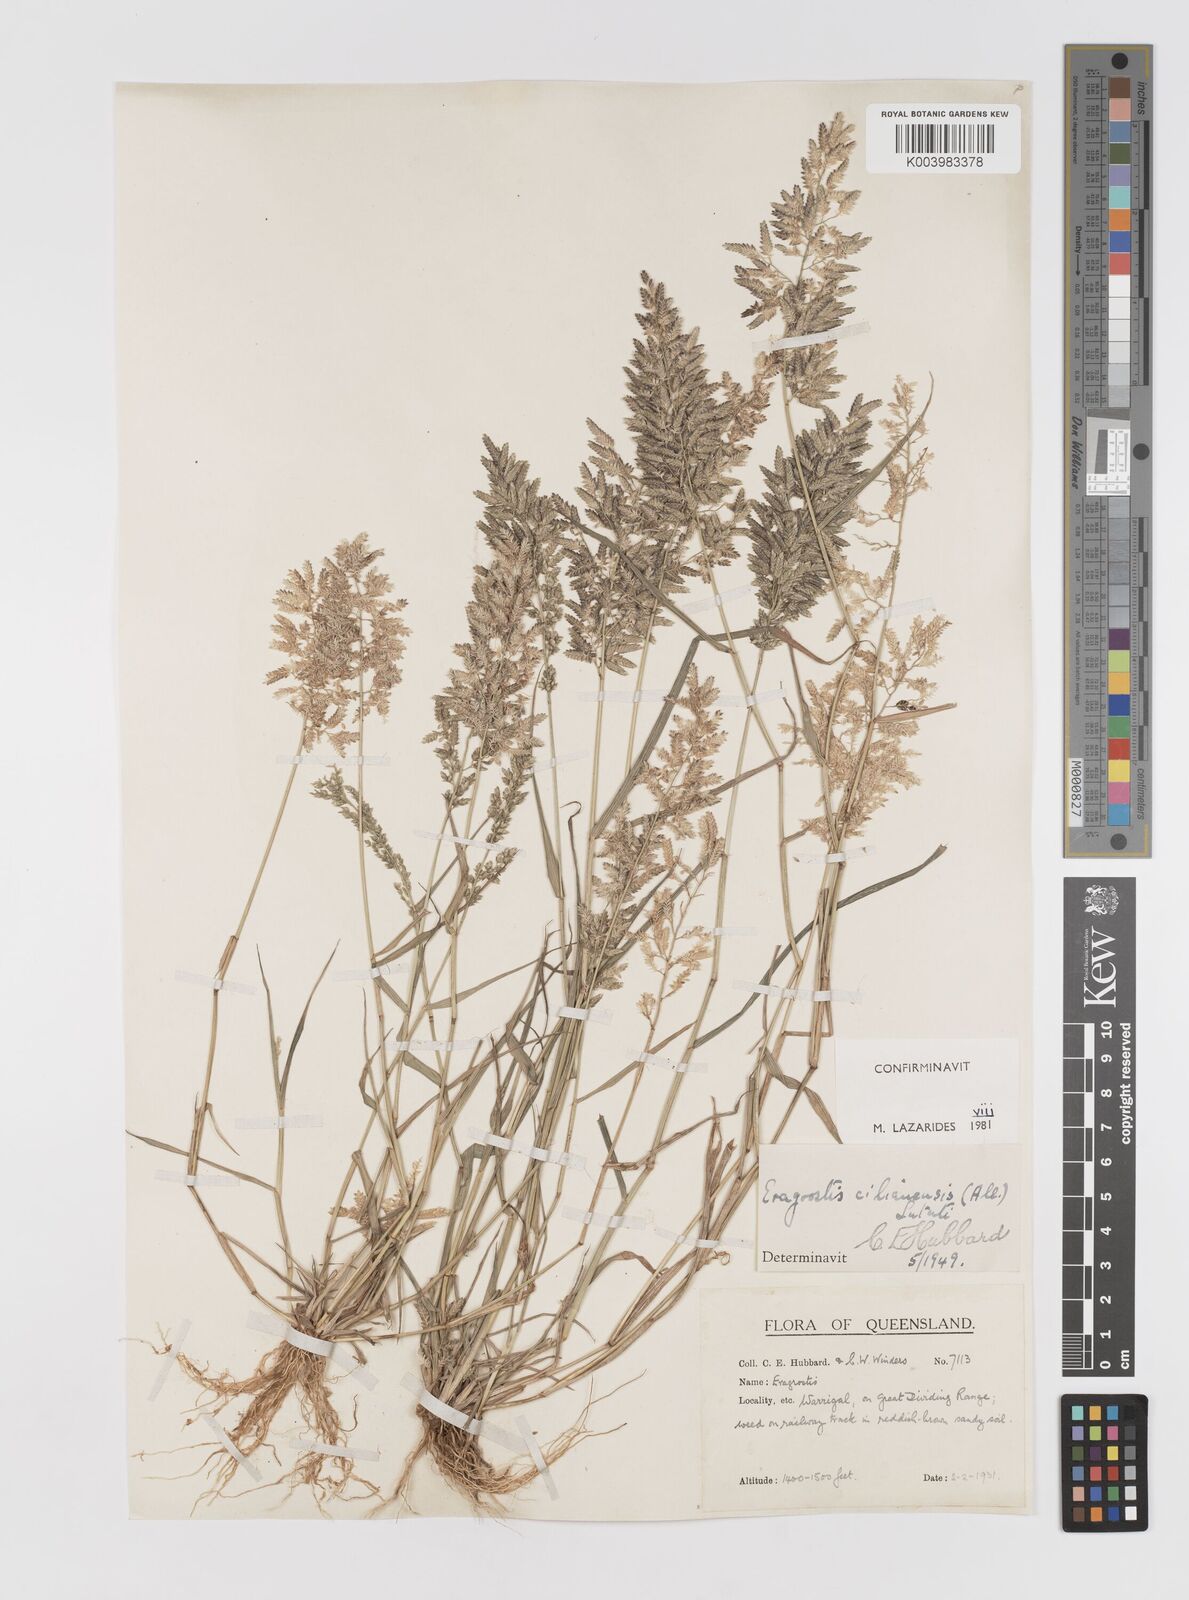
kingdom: Plantae
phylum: Tracheophyta
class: Liliopsida
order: Poales
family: Poaceae
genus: Eragrostis
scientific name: Eragrostis cilianensis
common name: Stinkgrass
